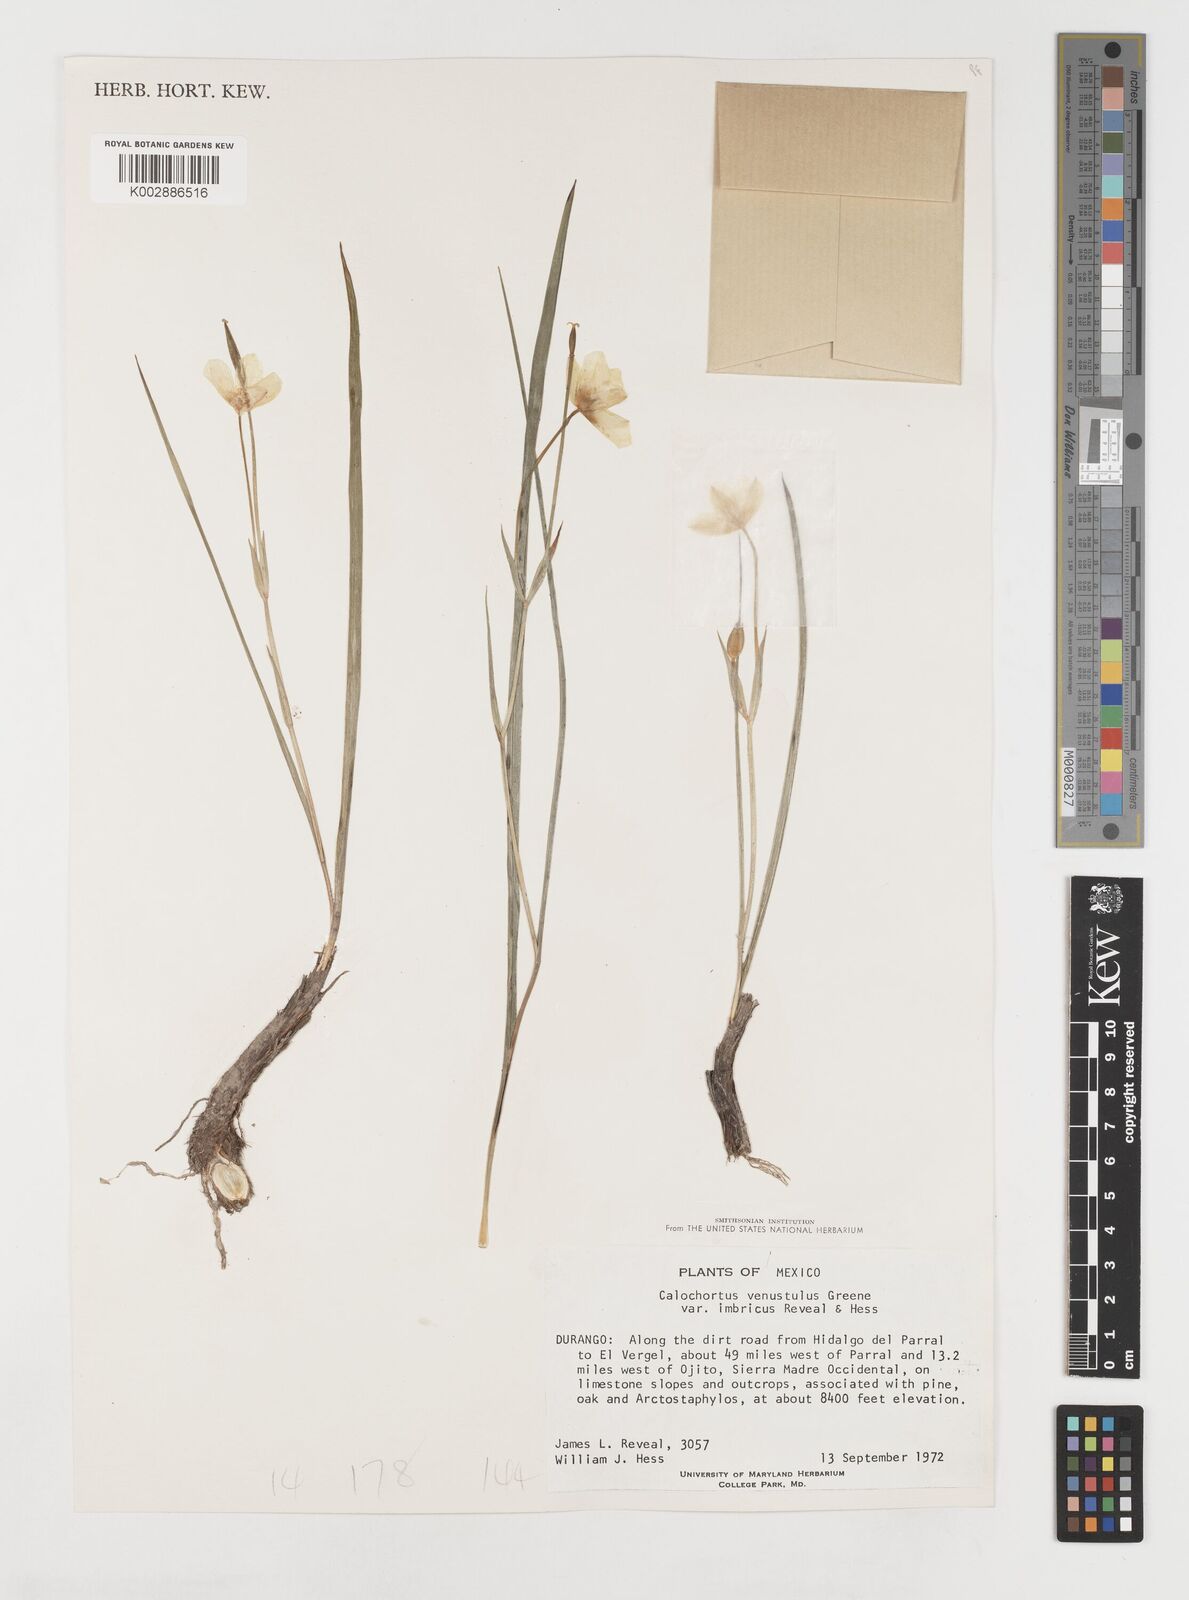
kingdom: Plantae
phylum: Tracheophyta
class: Liliopsida
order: Liliales
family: Liliaceae
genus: Calochortus
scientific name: Calochortus venustulus
